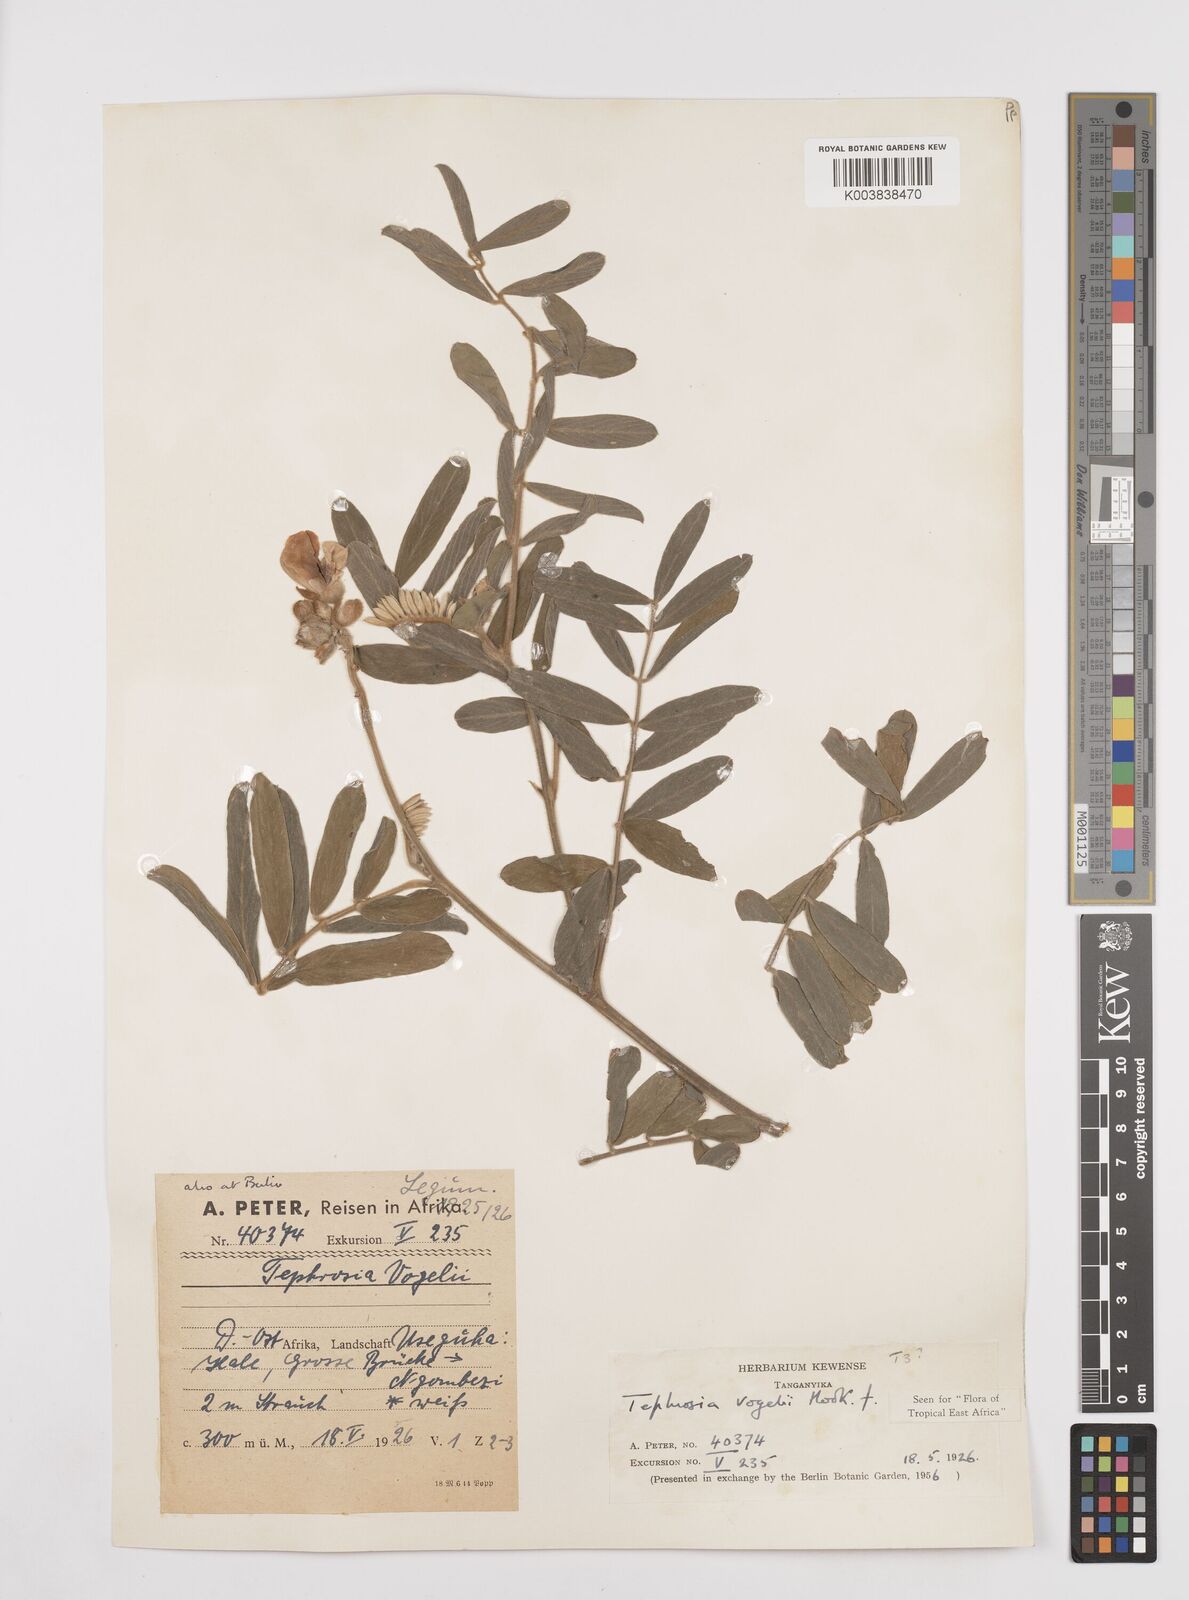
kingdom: Plantae
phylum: Tracheophyta
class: Magnoliopsida
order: Fabales
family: Fabaceae
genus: Tephrosia
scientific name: Tephrosia vogelii
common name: Vogel tephrosia
